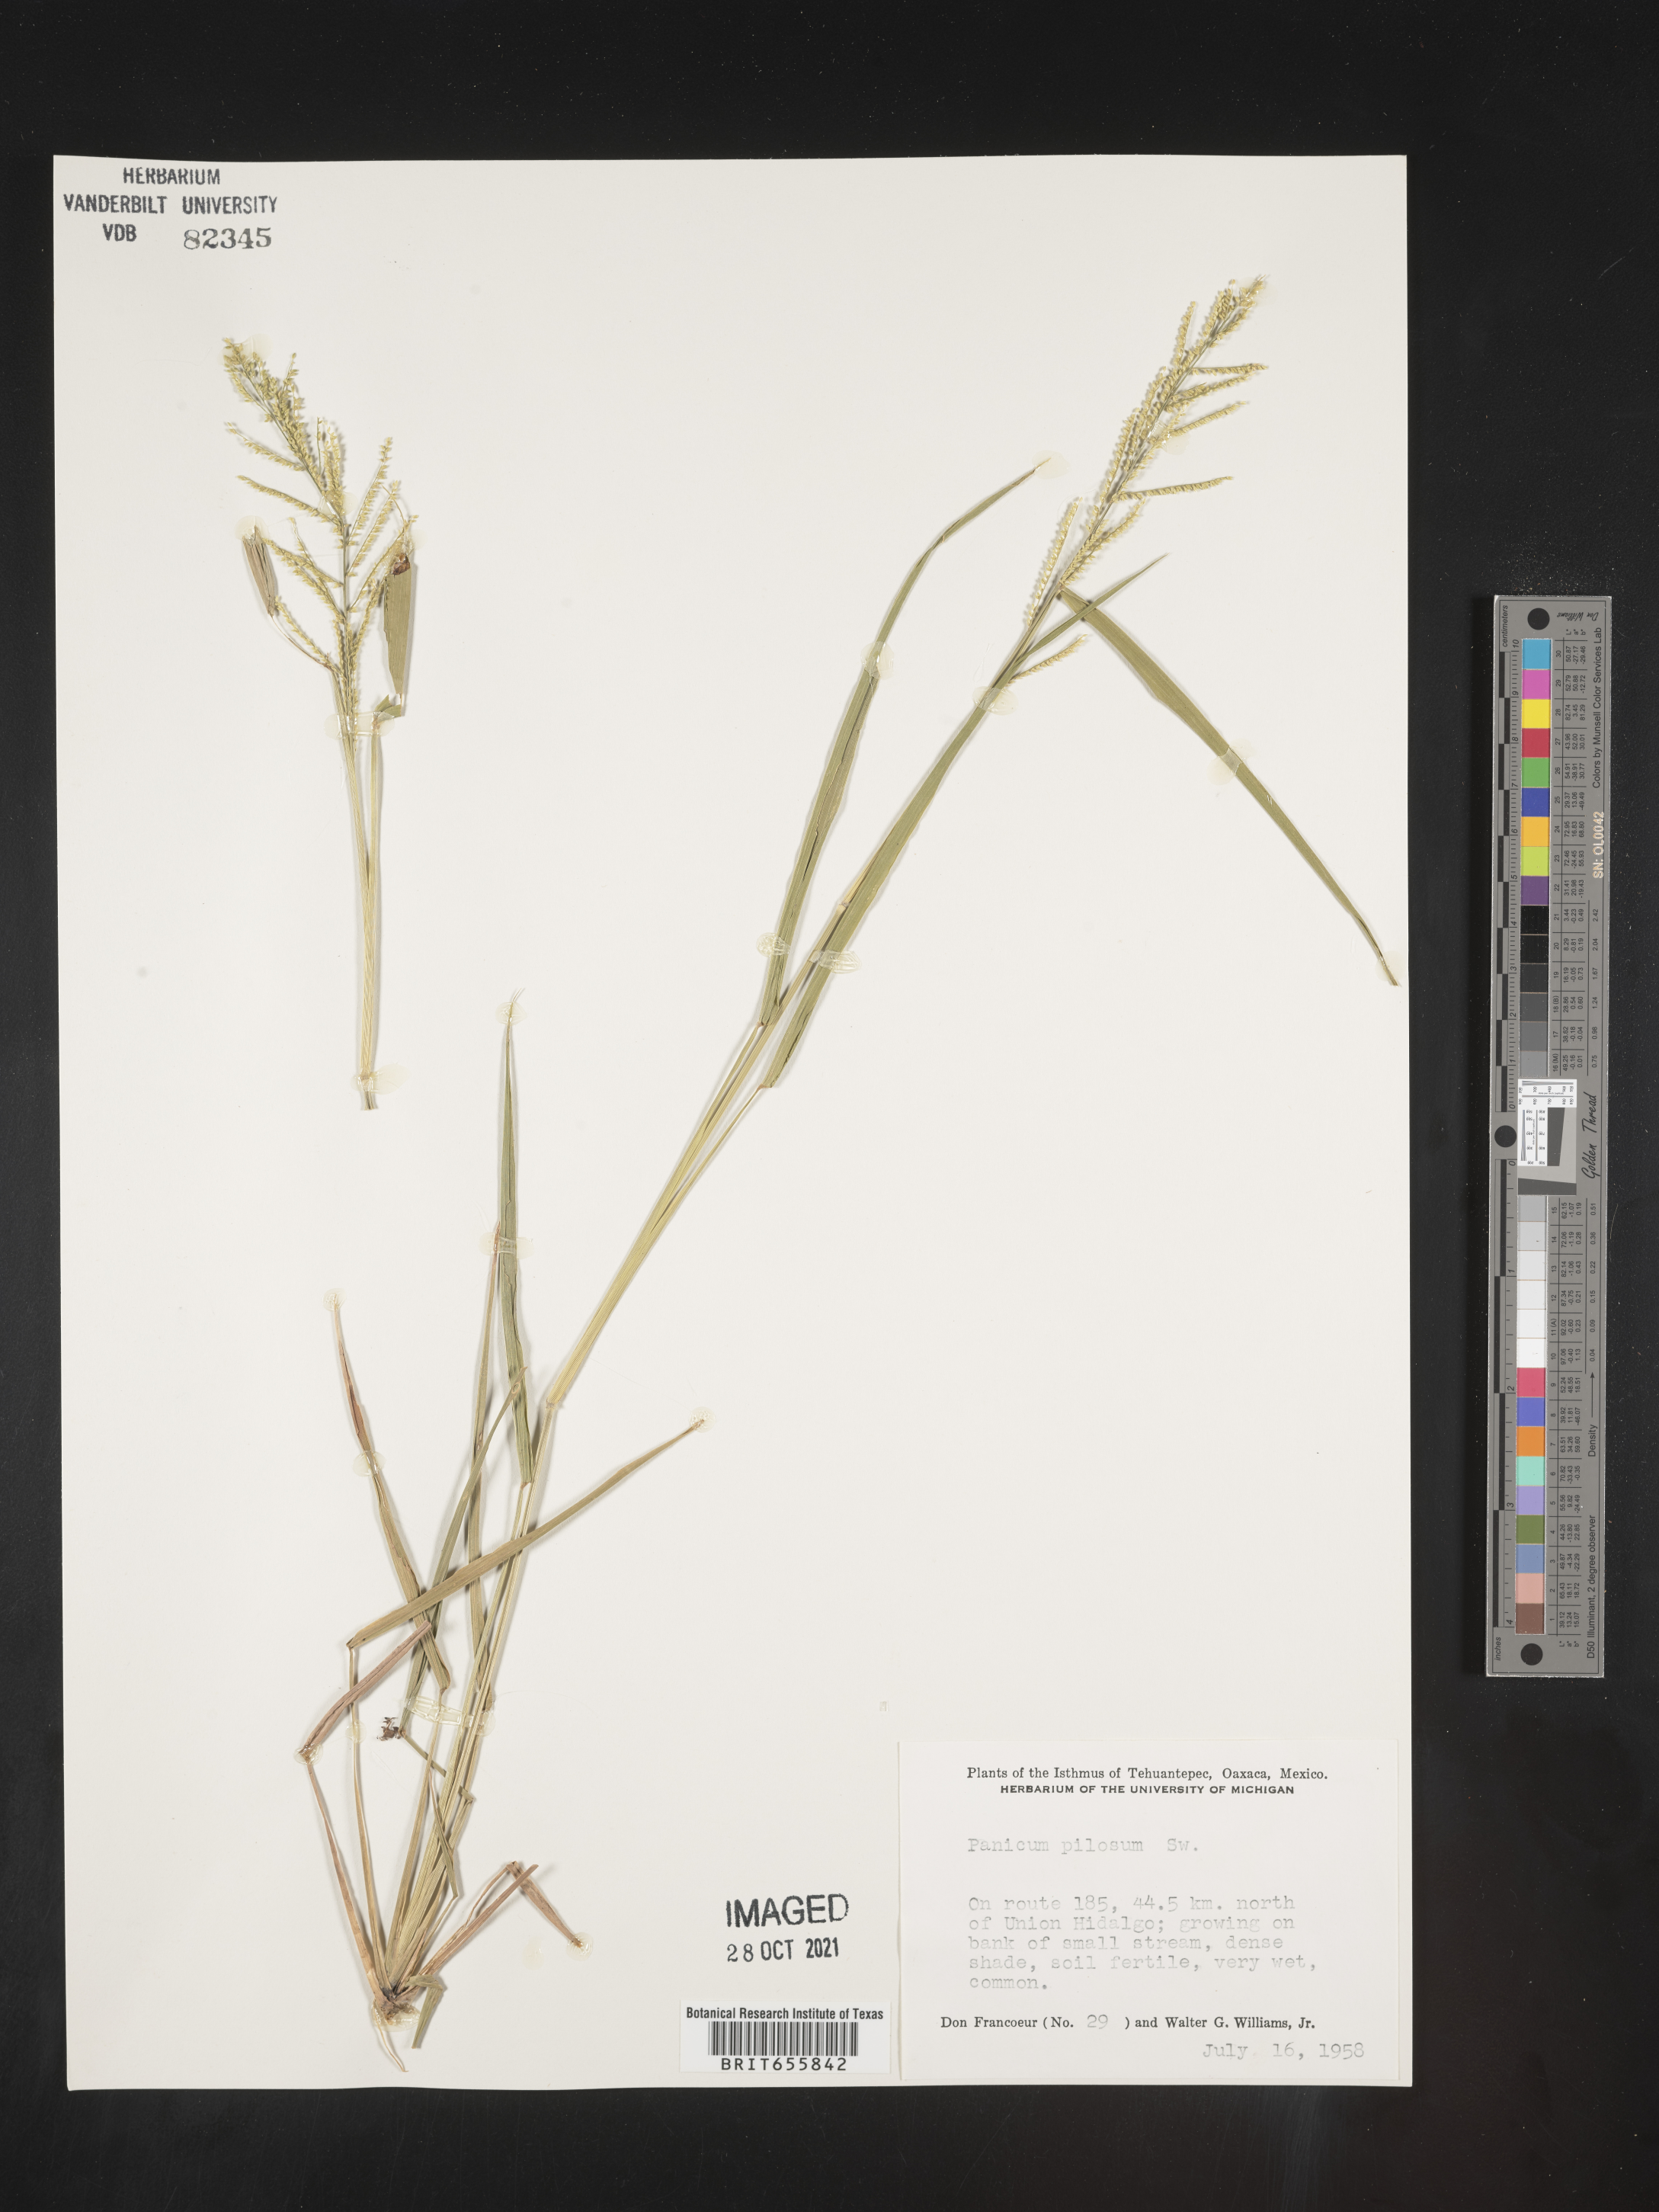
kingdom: Plantae
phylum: Tracheophyta
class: Liliopsida
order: Poales
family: Poaceae
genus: Panicum
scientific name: Panicum
